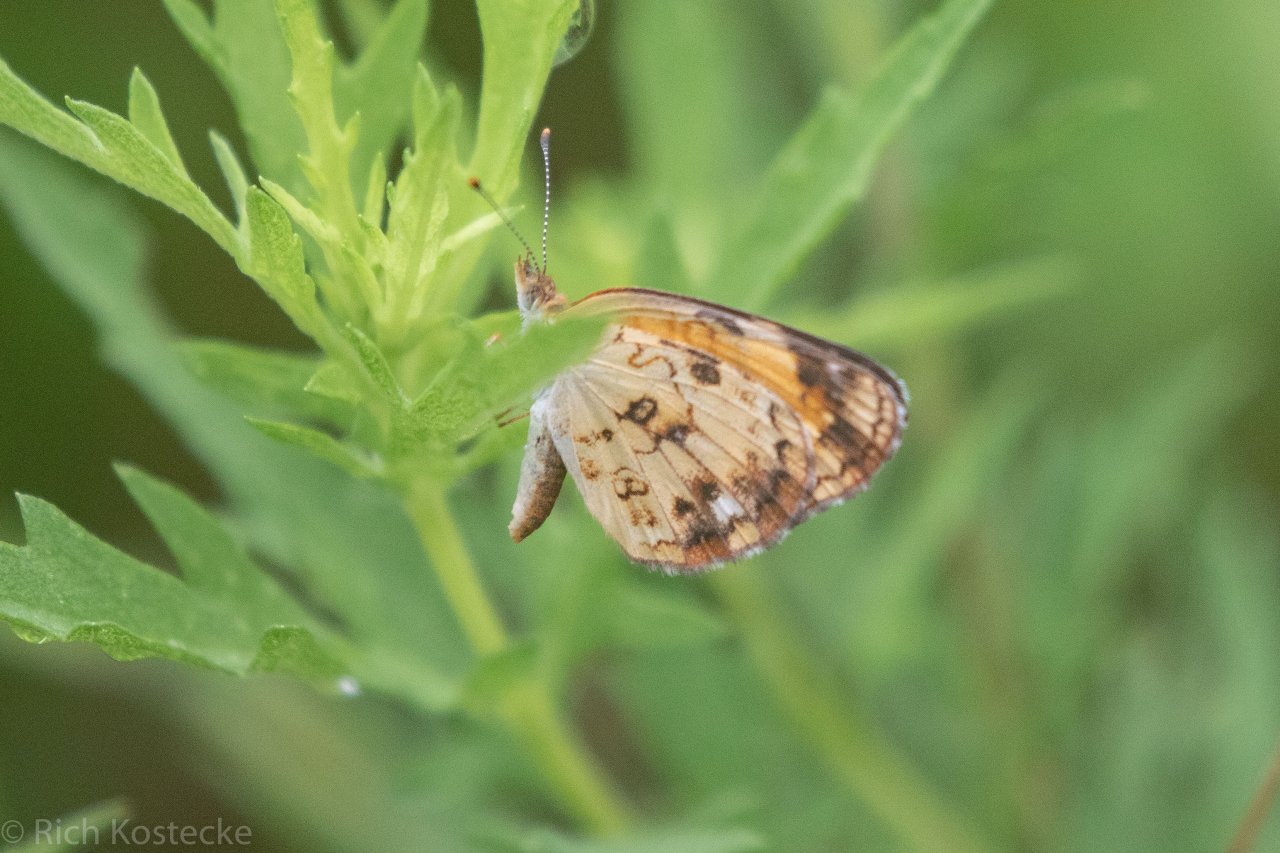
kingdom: Animalia
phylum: Arthropoda
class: Insecta
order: Lepidoptera
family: Nymphalidae
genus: Phyciodes
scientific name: Phyciodes tharos
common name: Pearl Crescent
